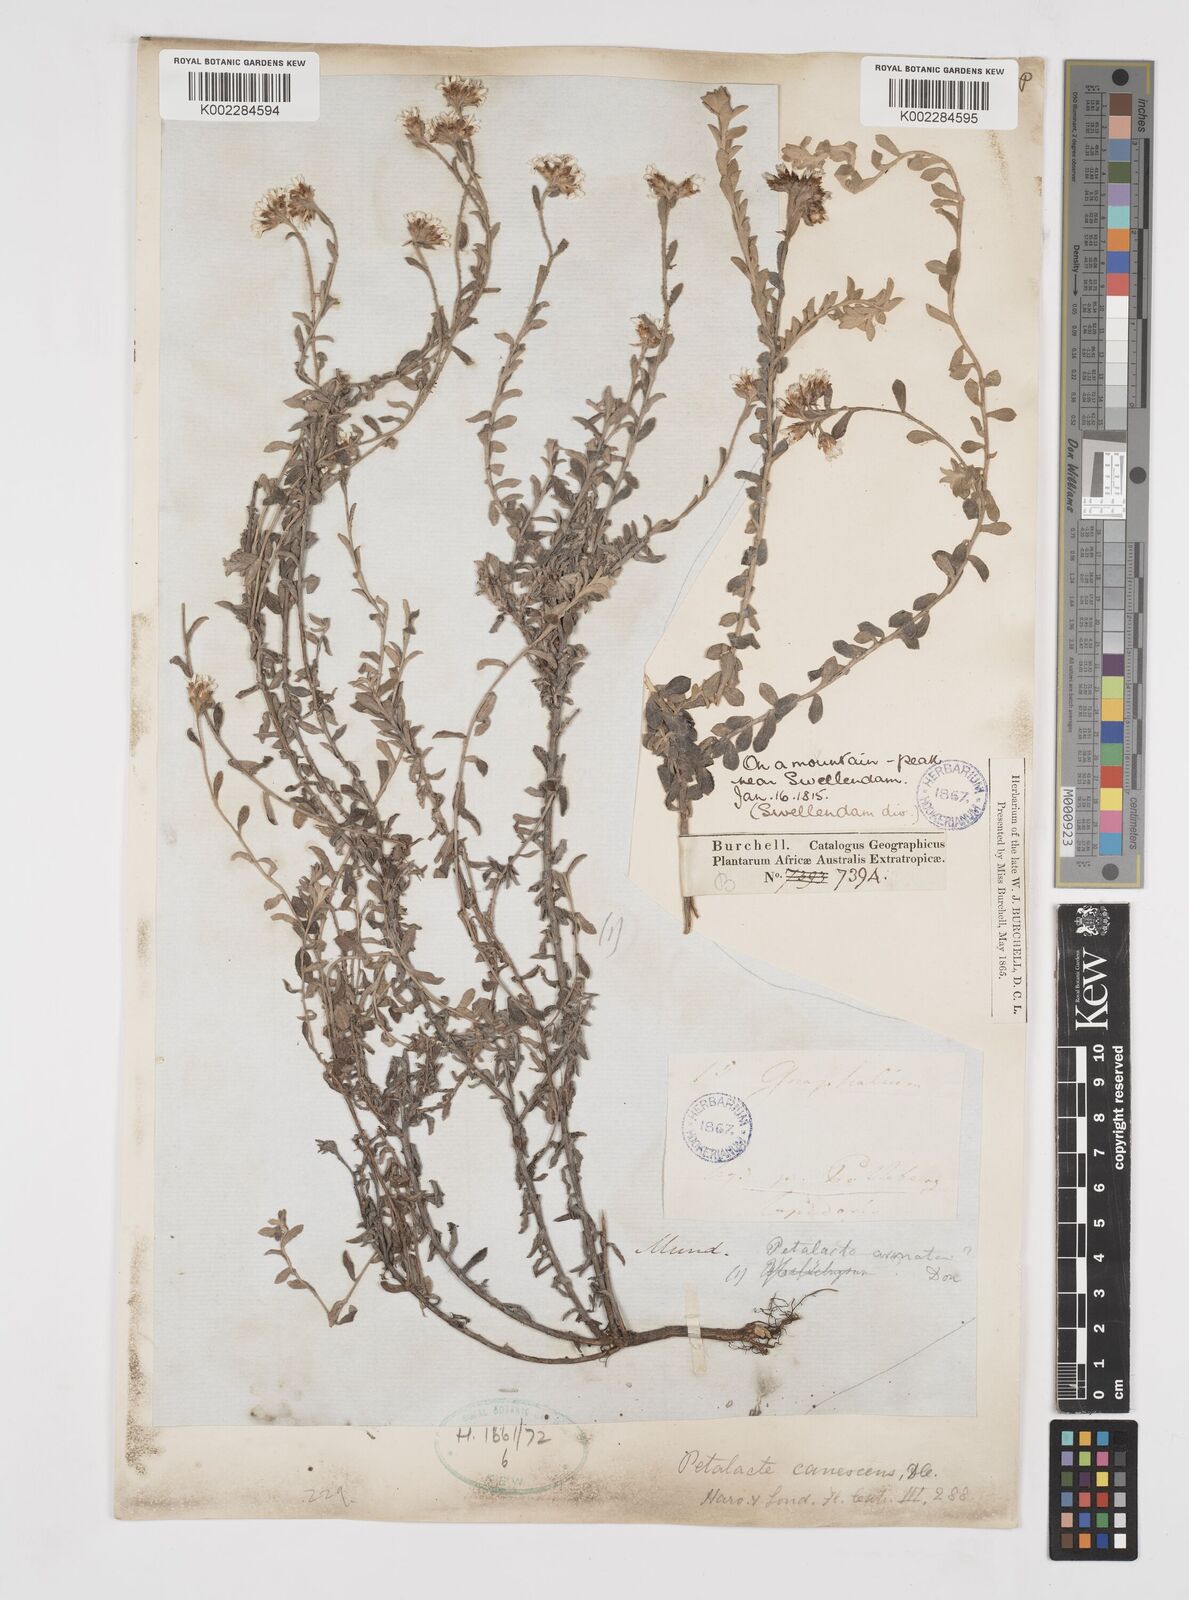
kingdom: Plantae
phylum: Tracheophyta
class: Magnoliopsida
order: Asterales
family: Asteraceae
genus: Langebergia
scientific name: Langebergia canescens
